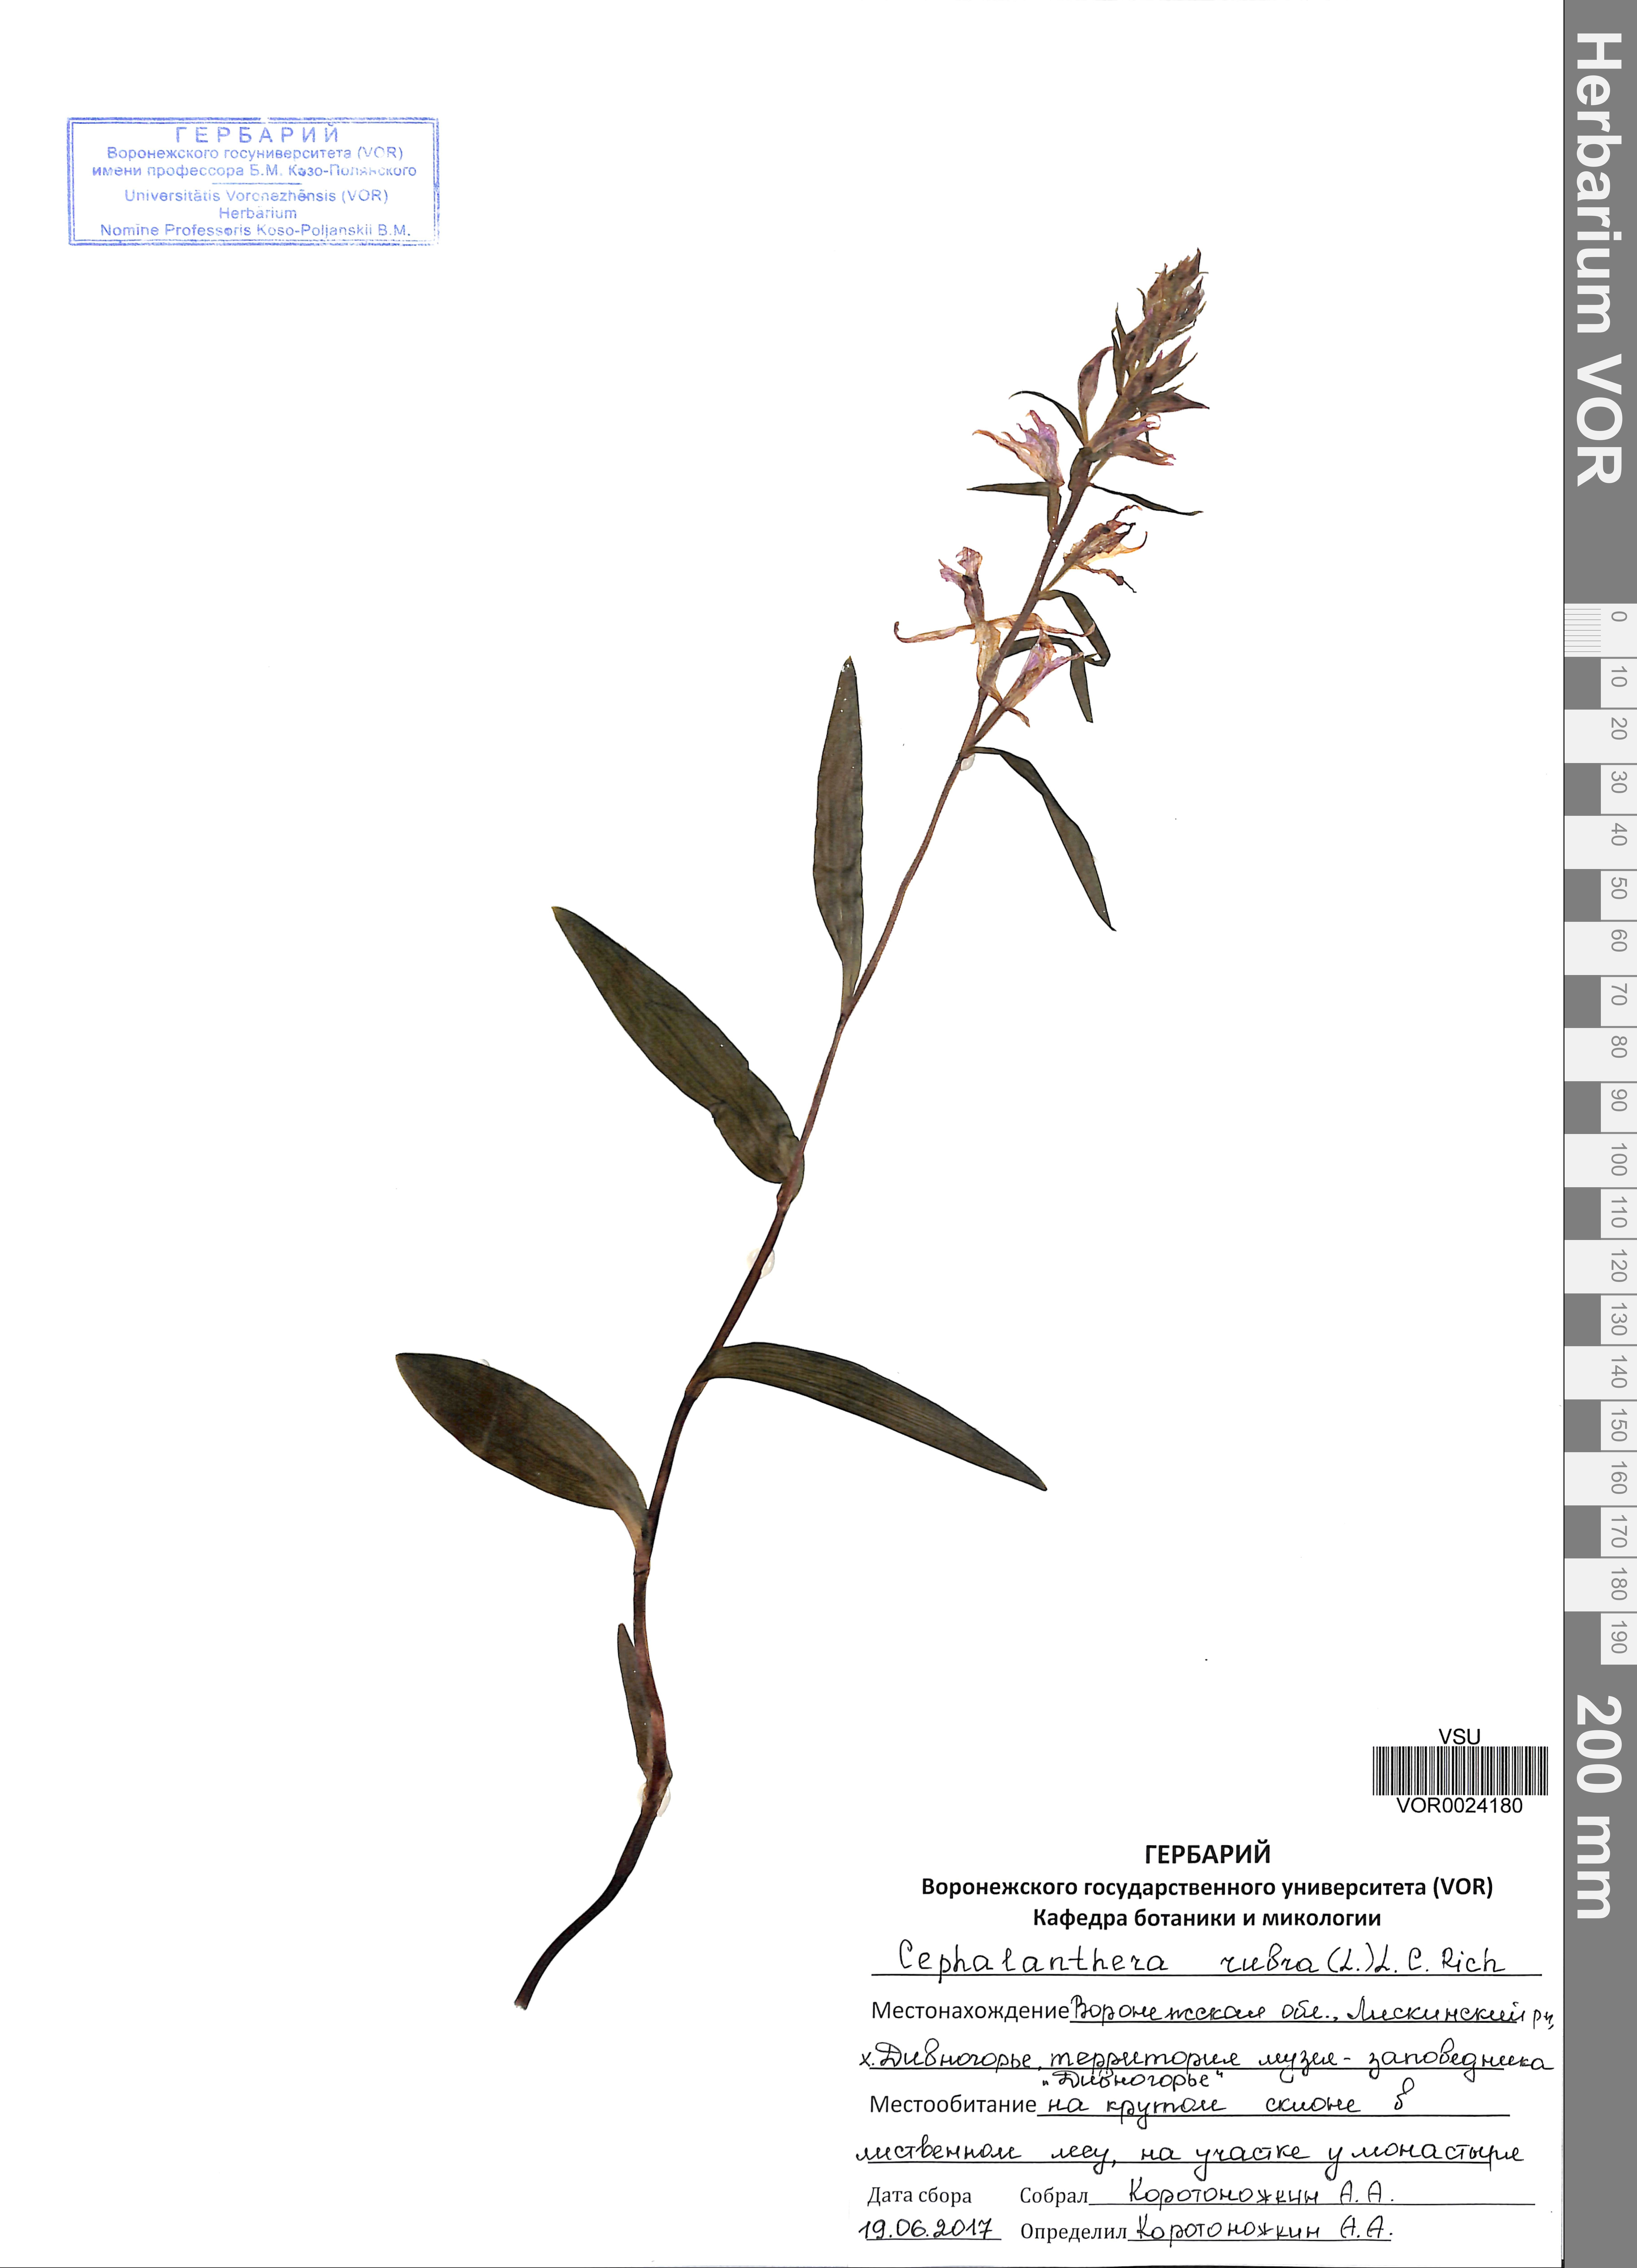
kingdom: Plantae
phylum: Tracheophyta
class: Liliopsida
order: Asparagales
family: Orchidaceae
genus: Cephalanthera
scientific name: Cephalanthera rubra
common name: Red helleborine
